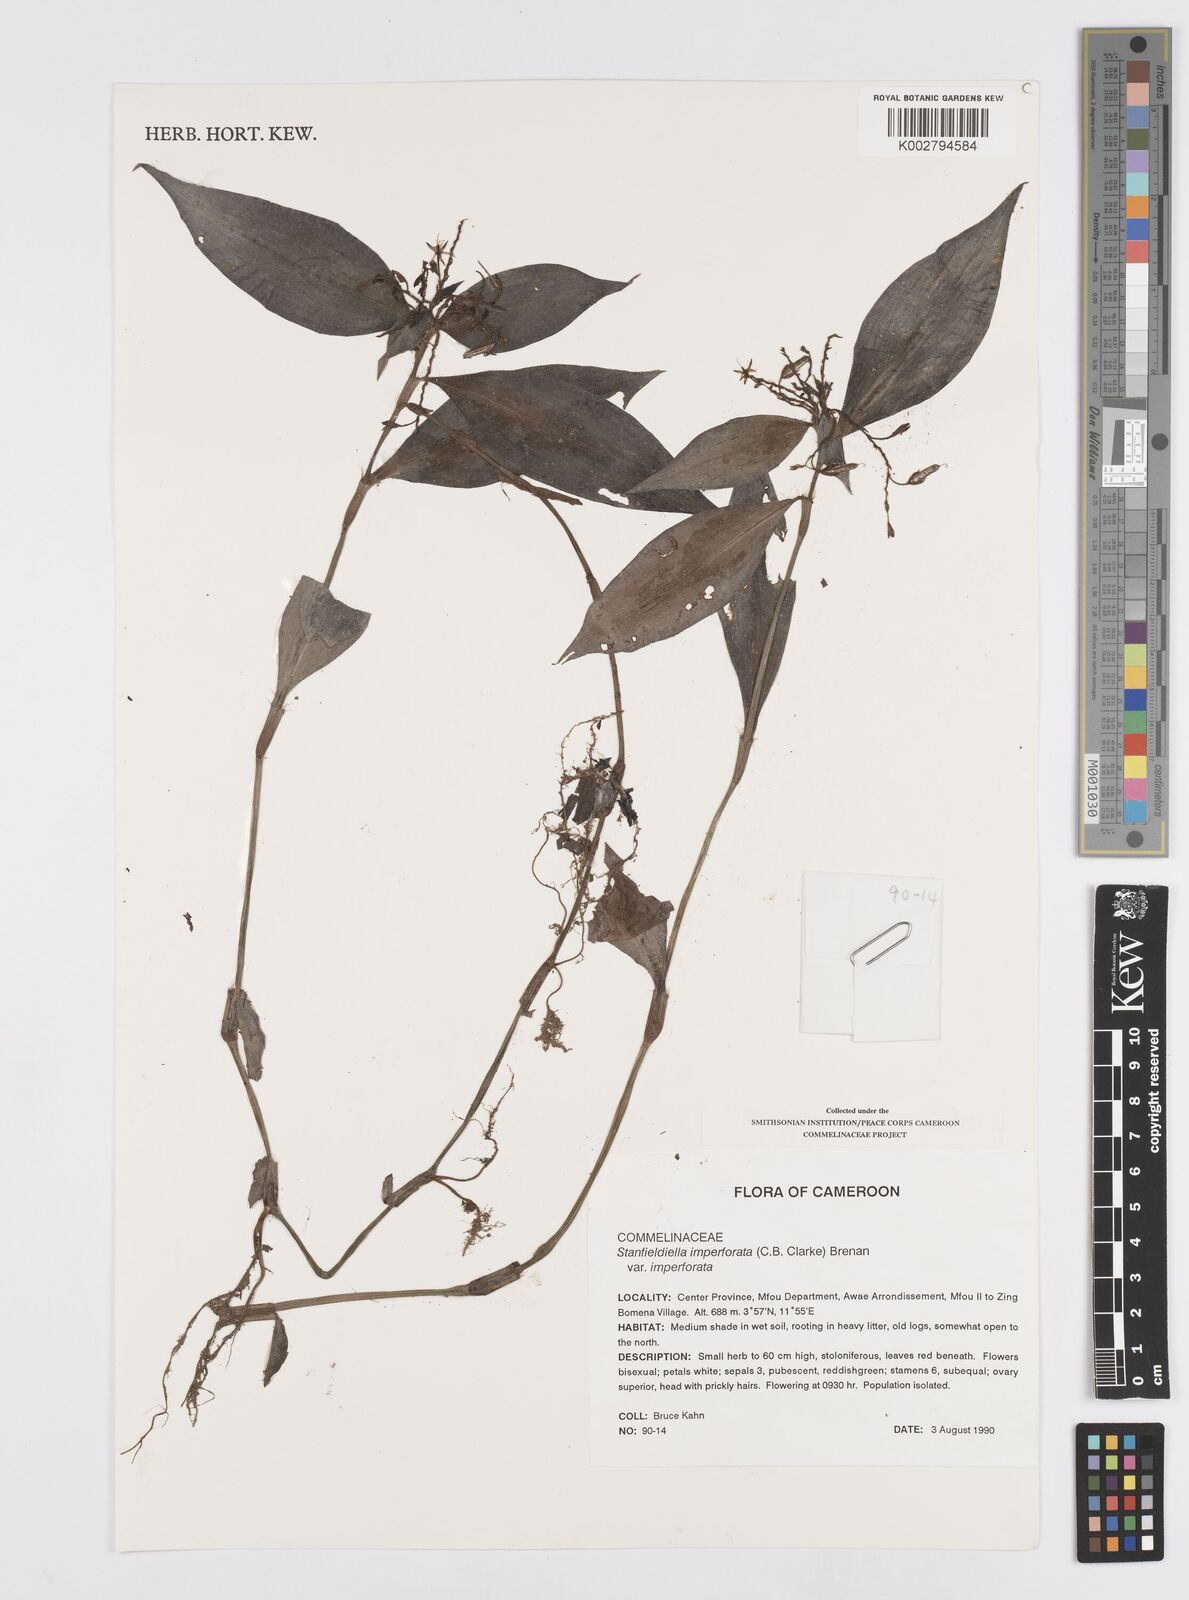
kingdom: Plantae
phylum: Tracheophyta
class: Liliopsida
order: Commelinales
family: Commelinaceae
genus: Stanfieldiella
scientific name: Stanfieldiella imperforata
